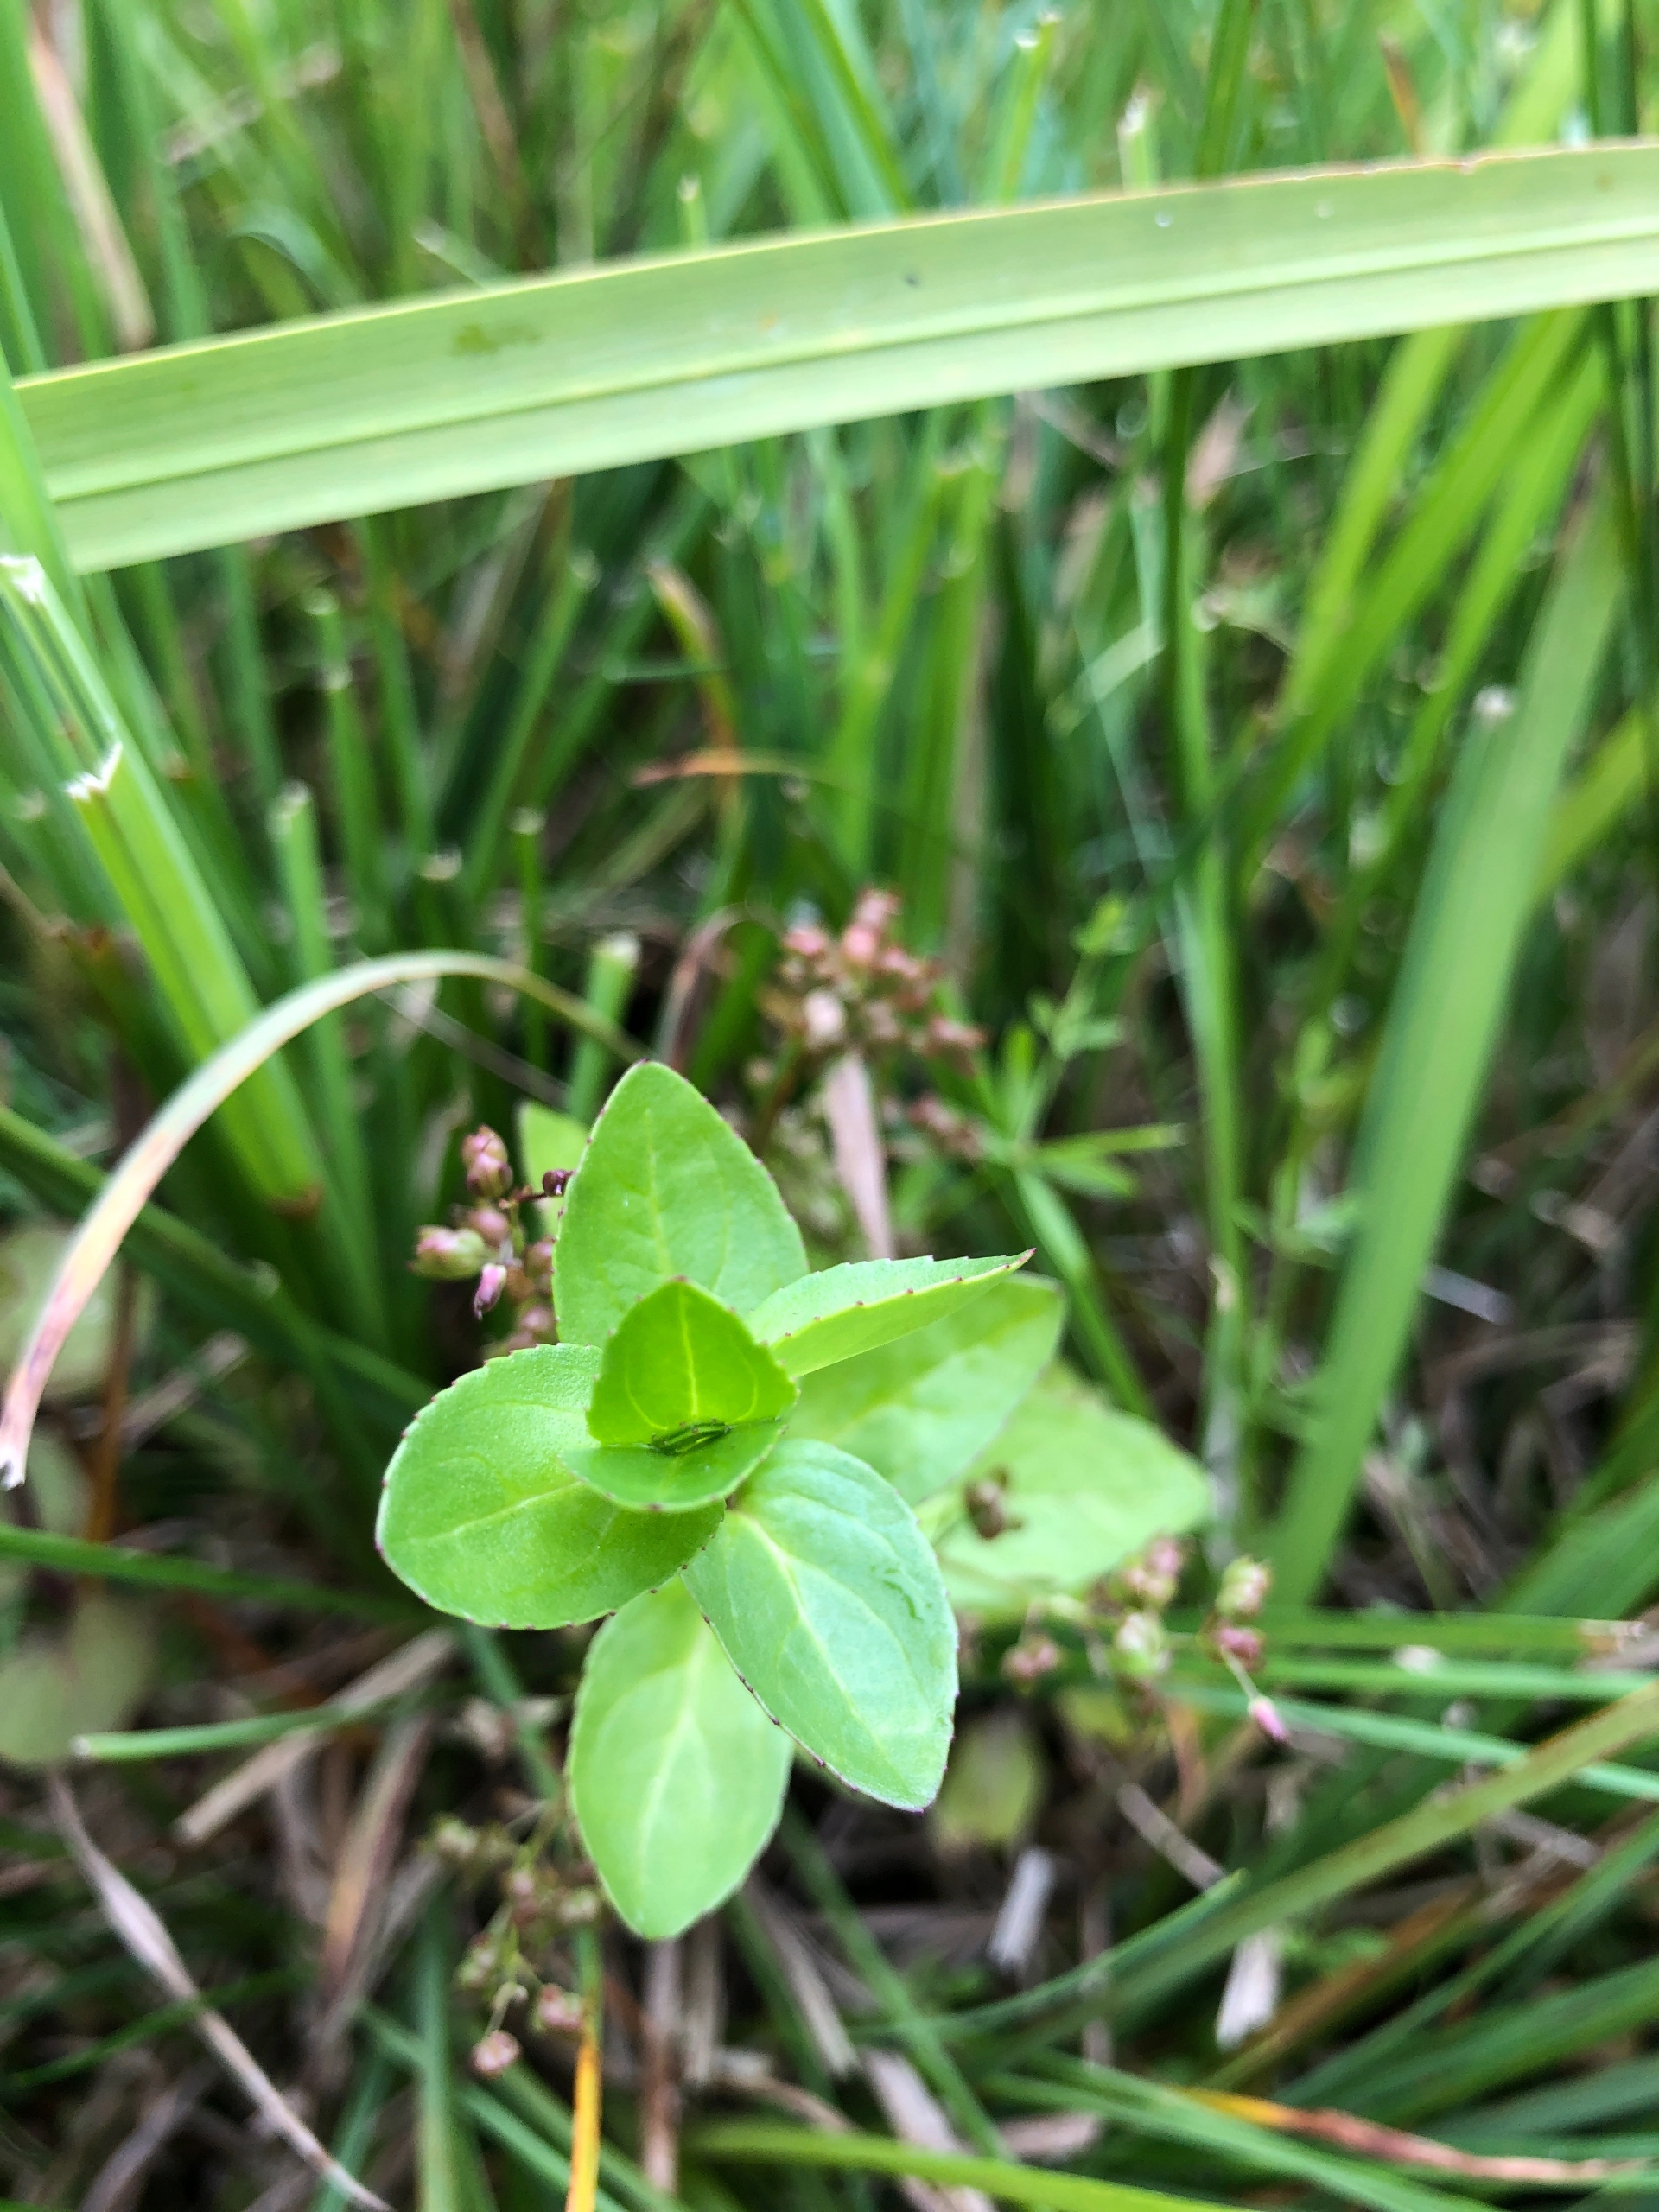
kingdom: Plantae
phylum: Tracheophyta
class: Magnoliopsida
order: Lamiales
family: Plantaginaceae
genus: Veronica
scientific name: Veronica beccabunga
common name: Tykbladet ærenpris
